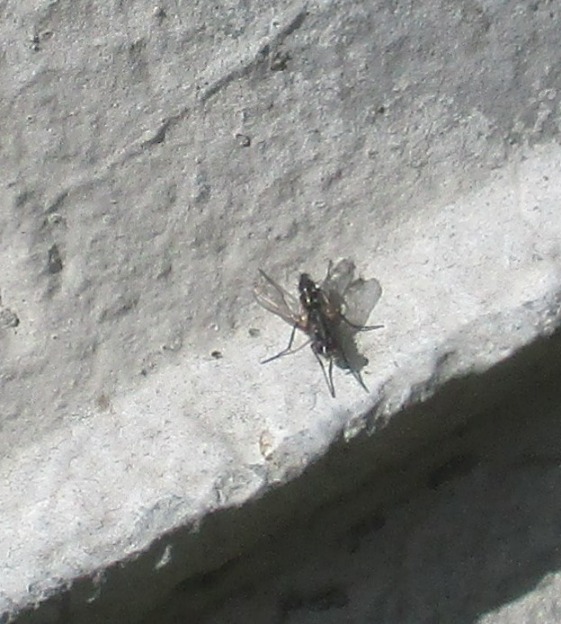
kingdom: Animalia
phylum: Arthropoda
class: Insecta
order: Diptera
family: Tachinidae
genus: Mintho
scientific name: Mintho rufiventris
